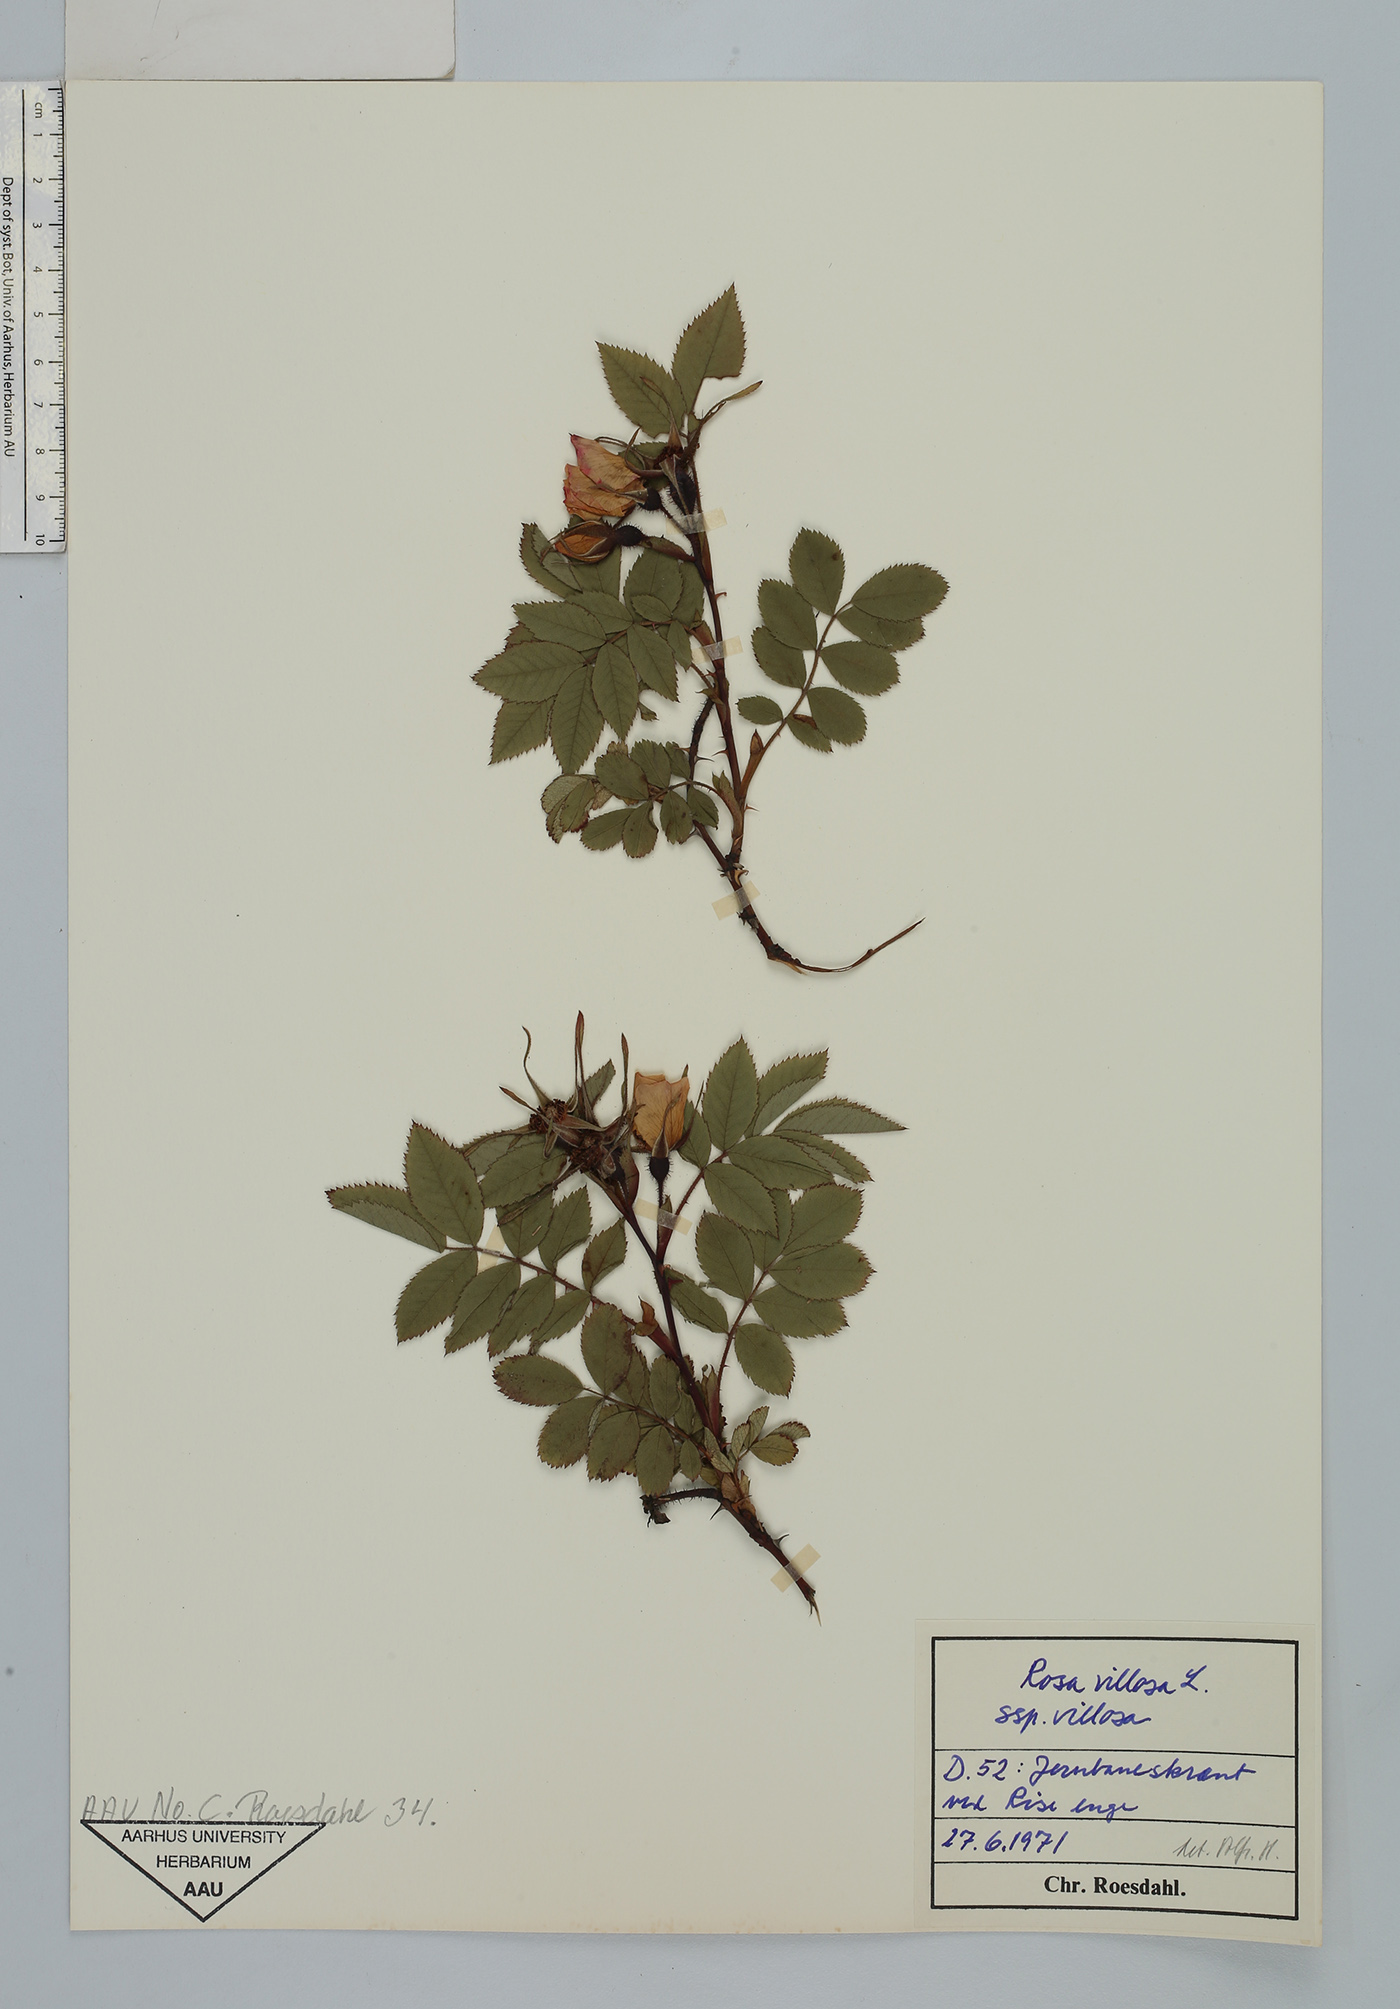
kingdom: Plantae
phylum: Tracheophyta
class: Magnoliopsida
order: Rosales
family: Rosaceae
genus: Rosa
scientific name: Rosa villosa
